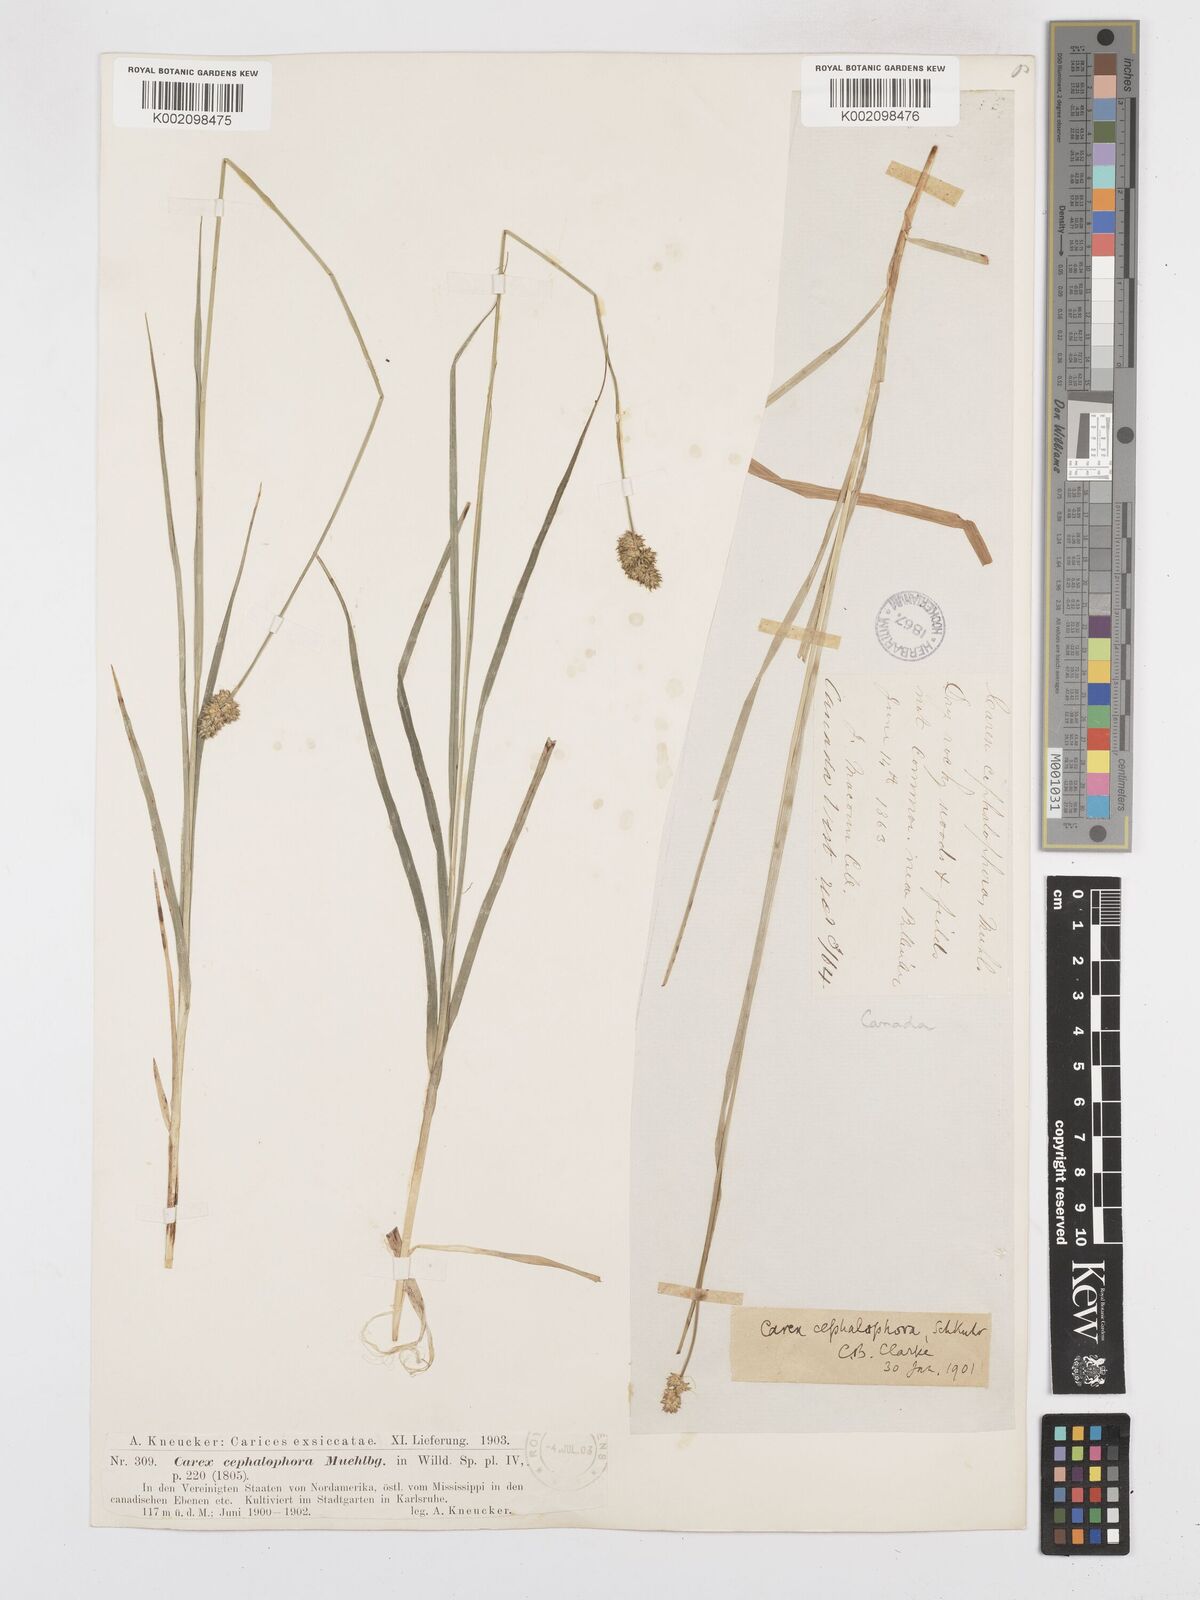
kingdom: Plantae
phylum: Tracheophyta
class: Liliopsida
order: Poales
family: Cyperaceae
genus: Carex
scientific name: Carex cephalophora
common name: Oval-headed sedge
